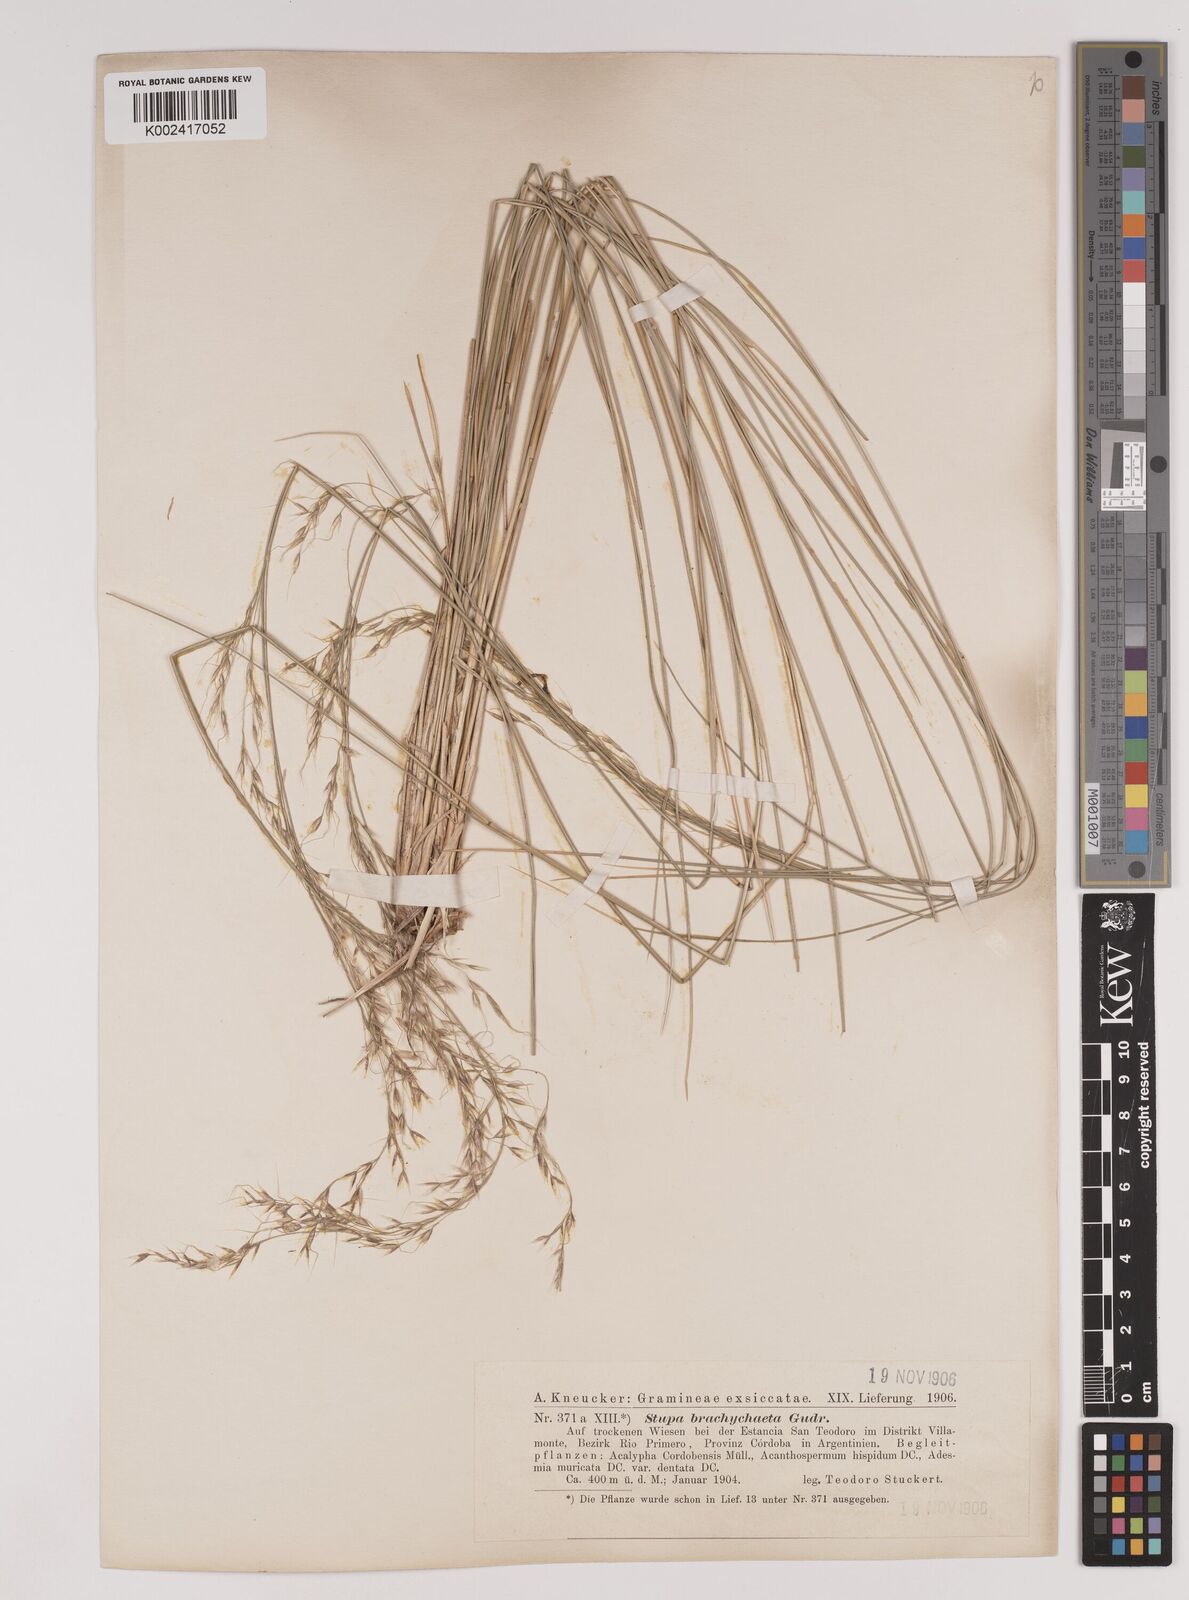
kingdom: Plantae
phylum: Tracheophyta
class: Liliopsida
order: Poales
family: Poaceae
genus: Amelichloa
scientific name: Amelichloa brachychaeta
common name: Shortbristled needlegrass
